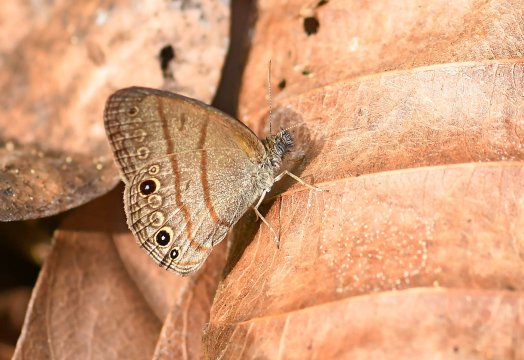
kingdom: Animalia
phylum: Arthropoda
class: Insecta
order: Lepidoptera
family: Nymphalidae
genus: Hermeuptychia
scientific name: Hermeuptychia hermes
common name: Carolina Satyr
